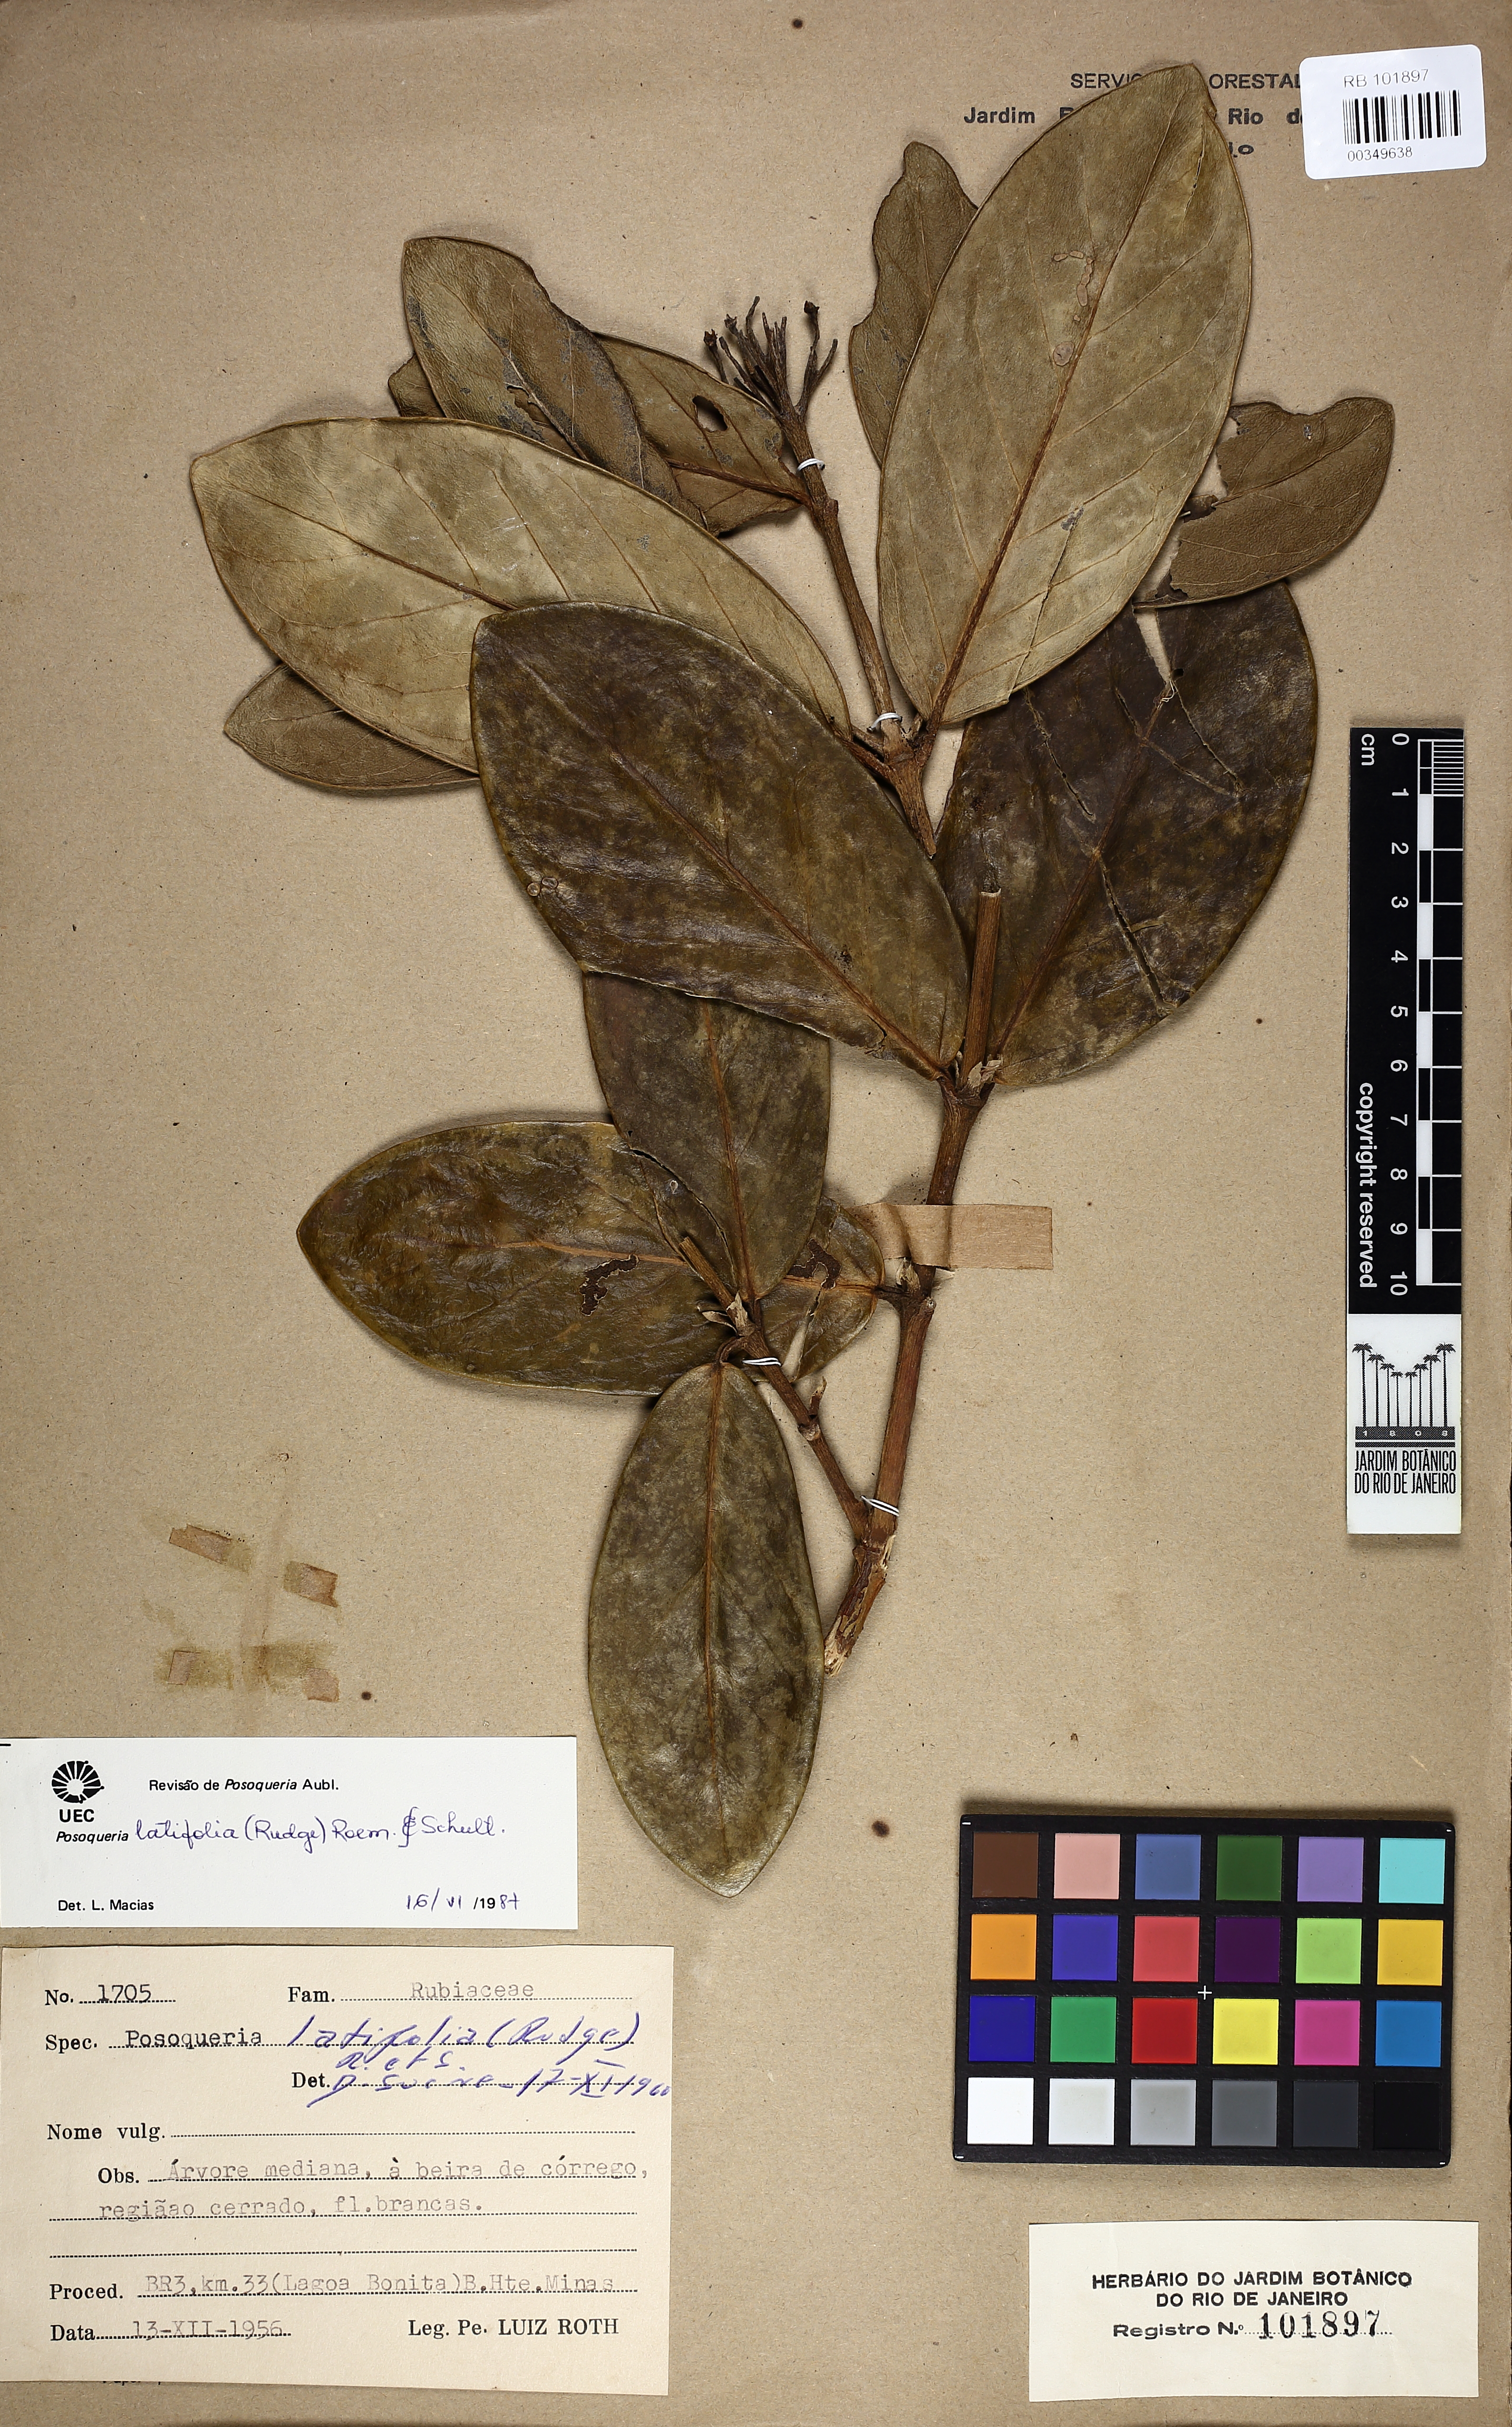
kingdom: Plantae
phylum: Tracheophyta
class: Magnoliopsida
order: Gentianales
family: Rubiaceae
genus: Posoqueria
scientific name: Posoqueria latifolia
